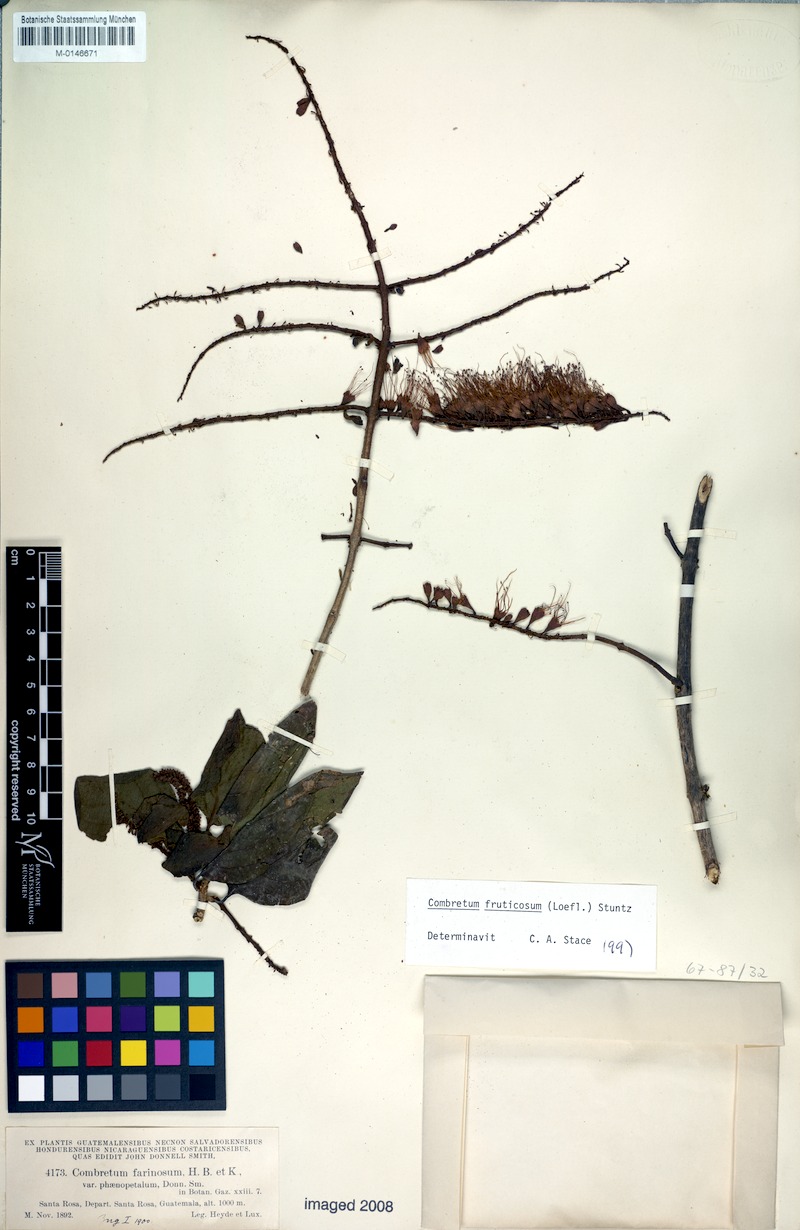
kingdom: Plantae
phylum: Tracheophyta
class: Magnoliopsida
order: Myrtales
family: Combretaceae
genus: Combretum
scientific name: Combretum fruticosum
